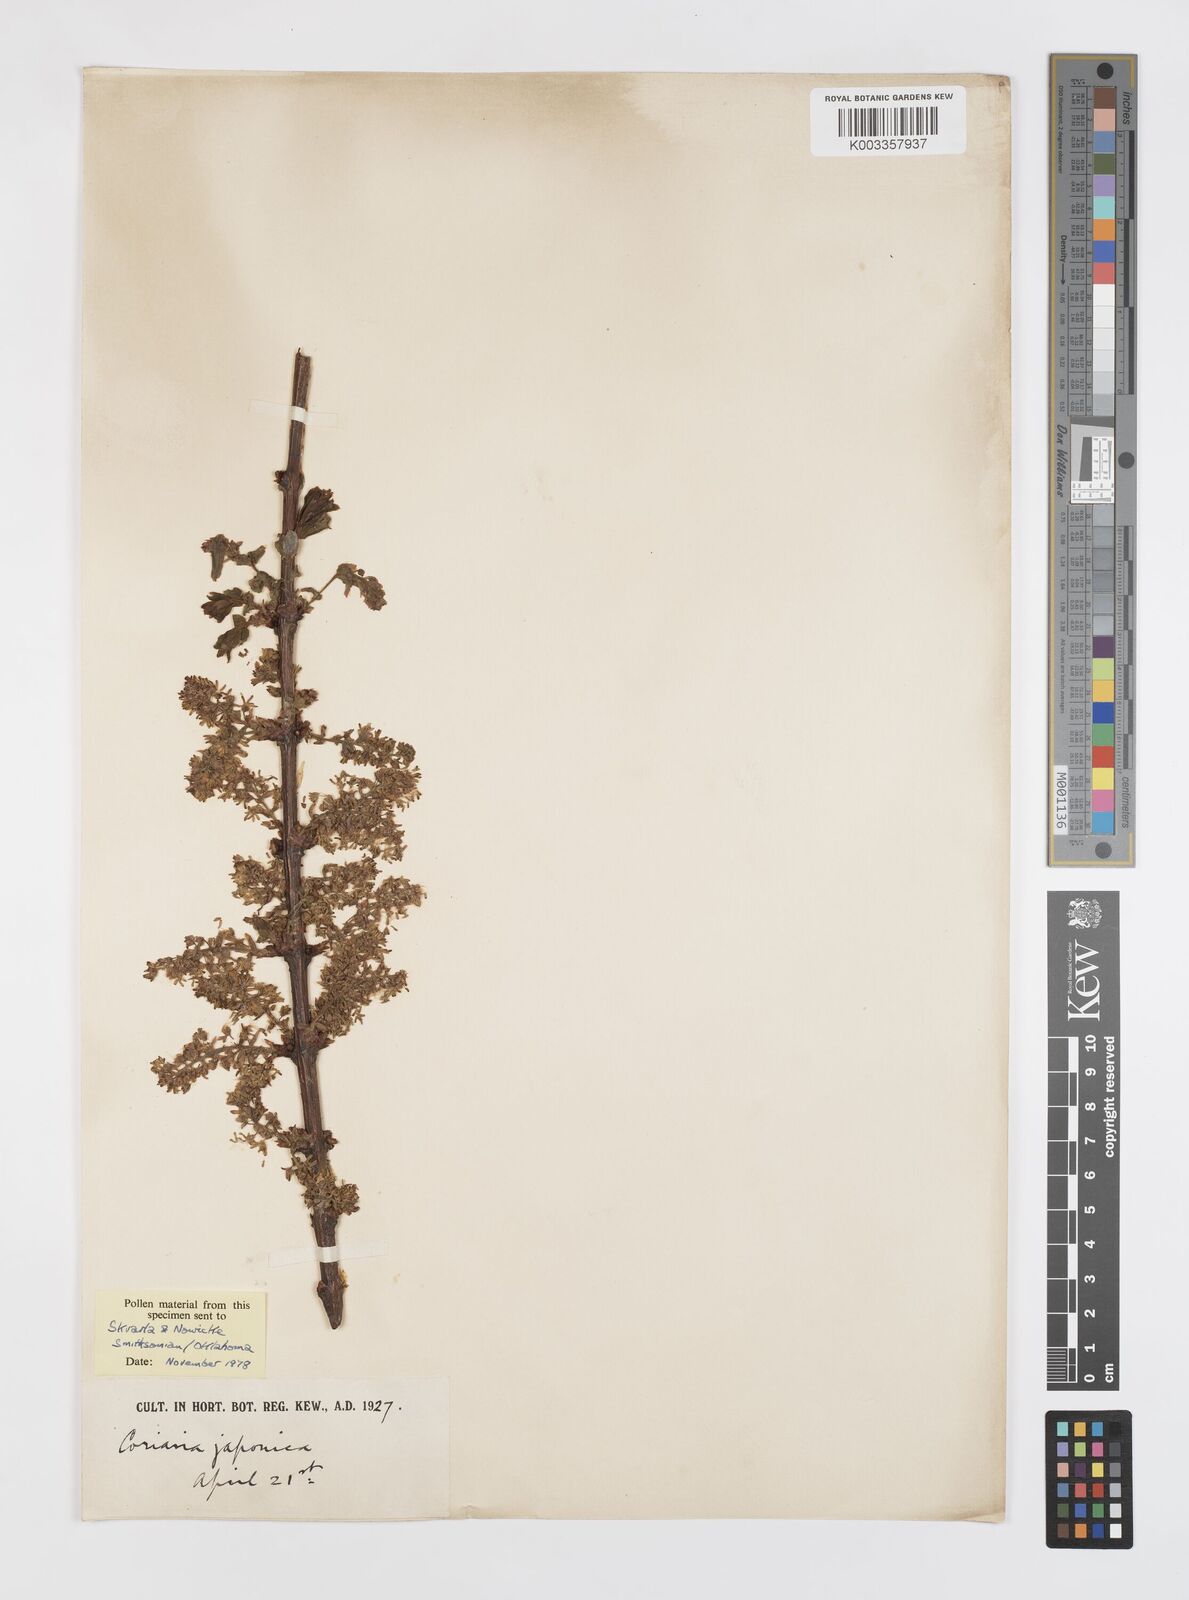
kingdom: Plantae
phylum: Tracheophyta
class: Magnoliopsida
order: Cucurbitales
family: Coriariaceae
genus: Coriaria
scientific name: Coriaria japonica
